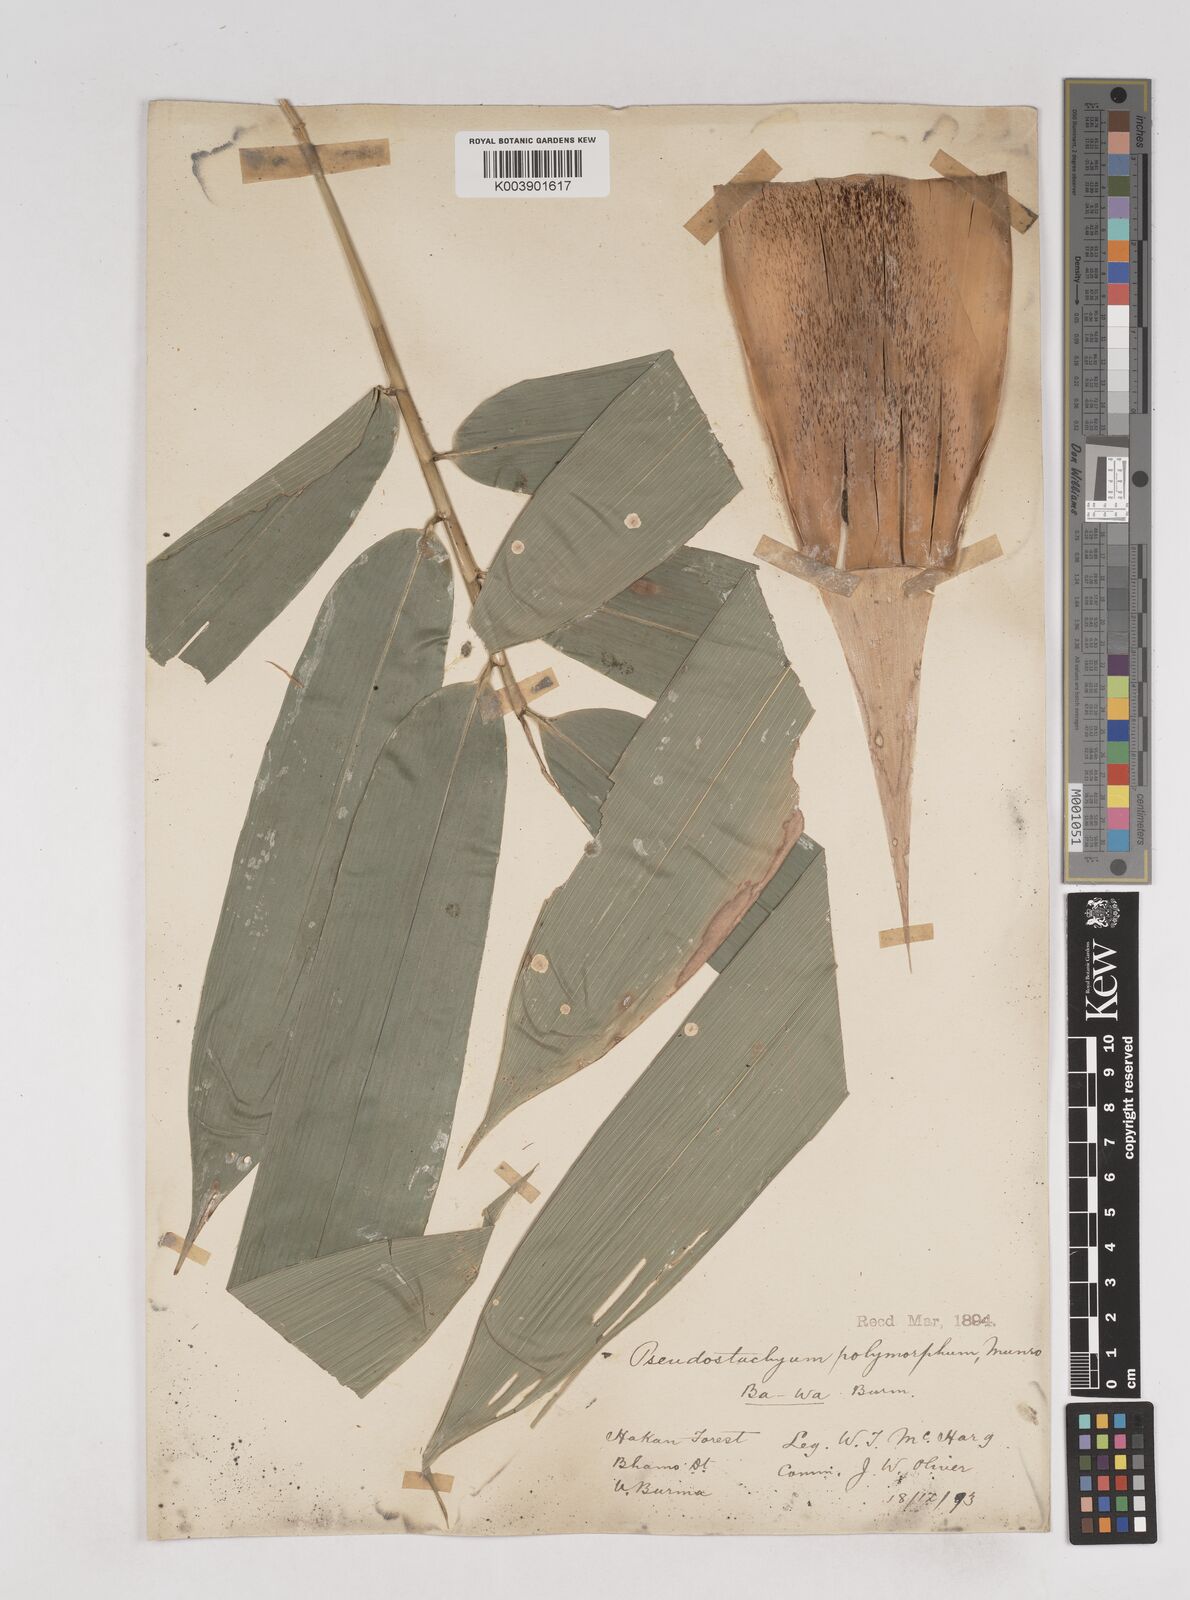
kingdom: Plantae
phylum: Tracheophyta
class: Liliopsida
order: Poales
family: Poaceae
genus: Pseudostachyum
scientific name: Pseudostachyum polymorphum
